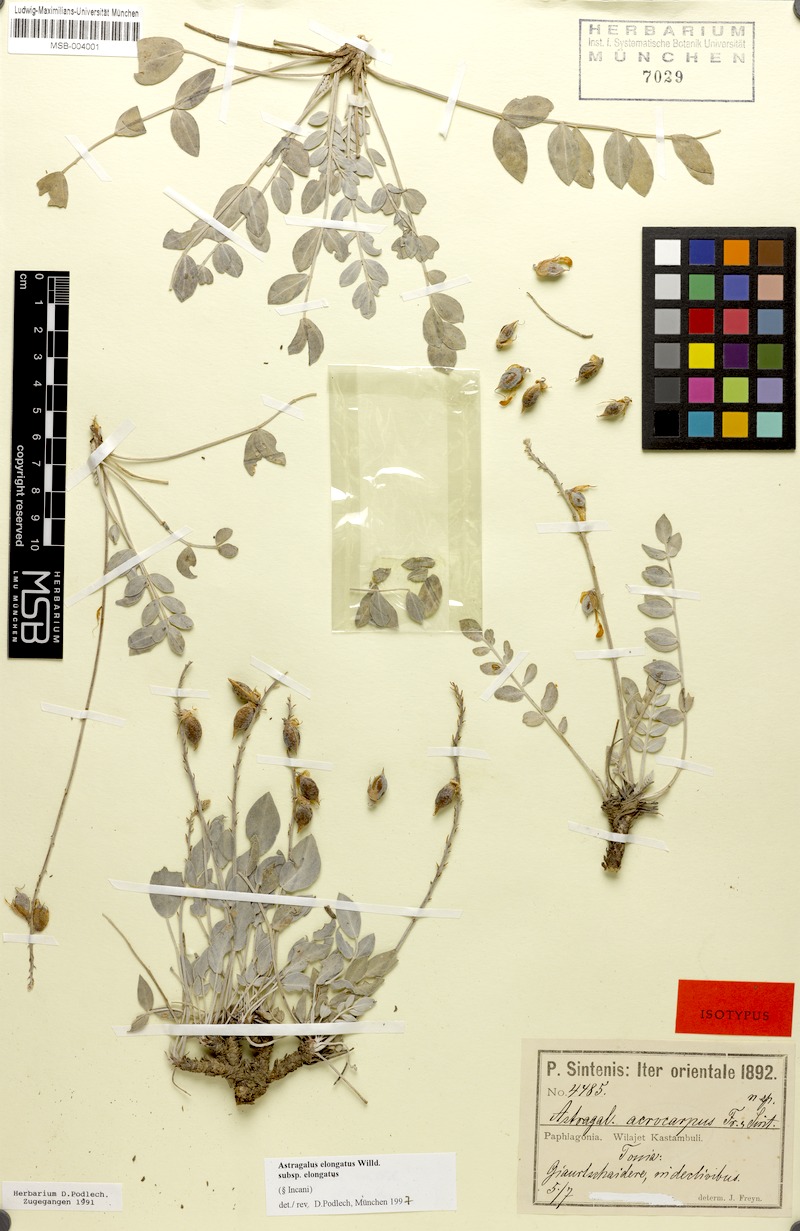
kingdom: Plantae
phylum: Tracheophyta
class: Magnoliopsida
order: Fabales
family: Fabaceae
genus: Astragalus
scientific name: Astragalus elongatus
